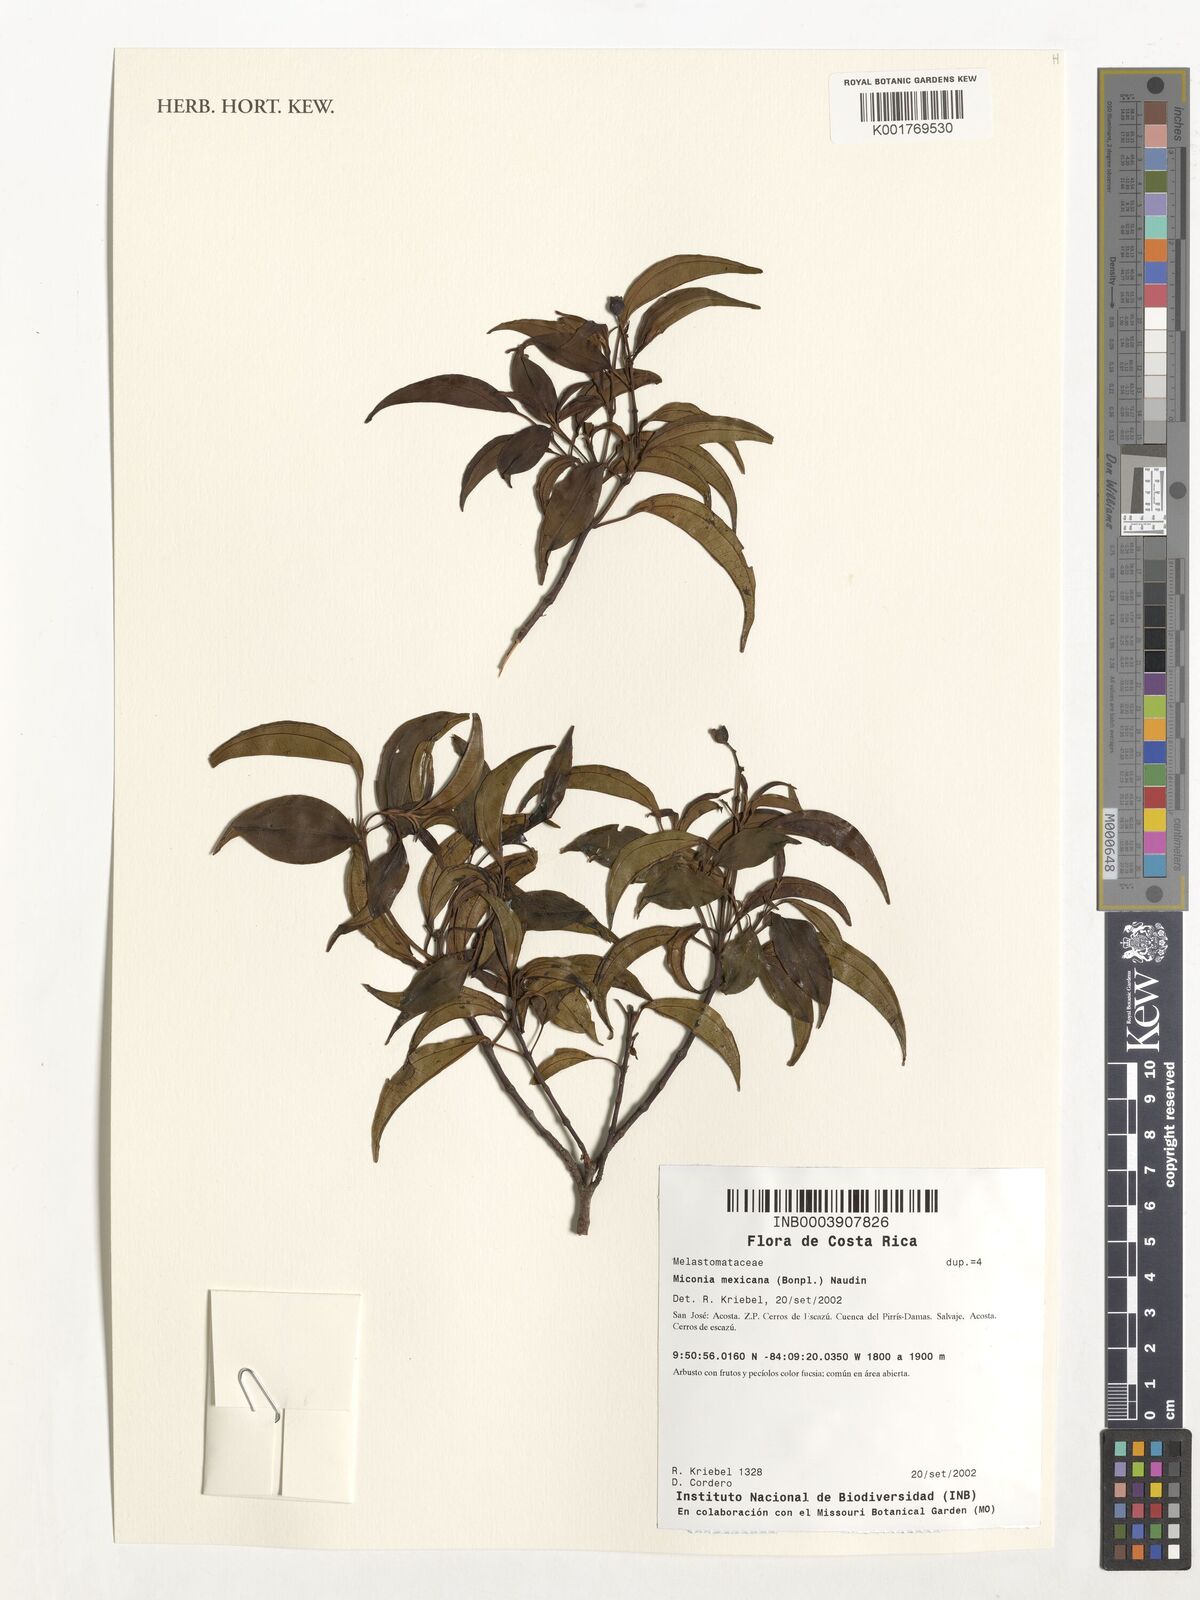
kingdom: Plantae
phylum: Tracheophyta
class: Magnoliopsida
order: Myrtales
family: Melastomataceae
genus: Miconia
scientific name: Miconia mexicana
